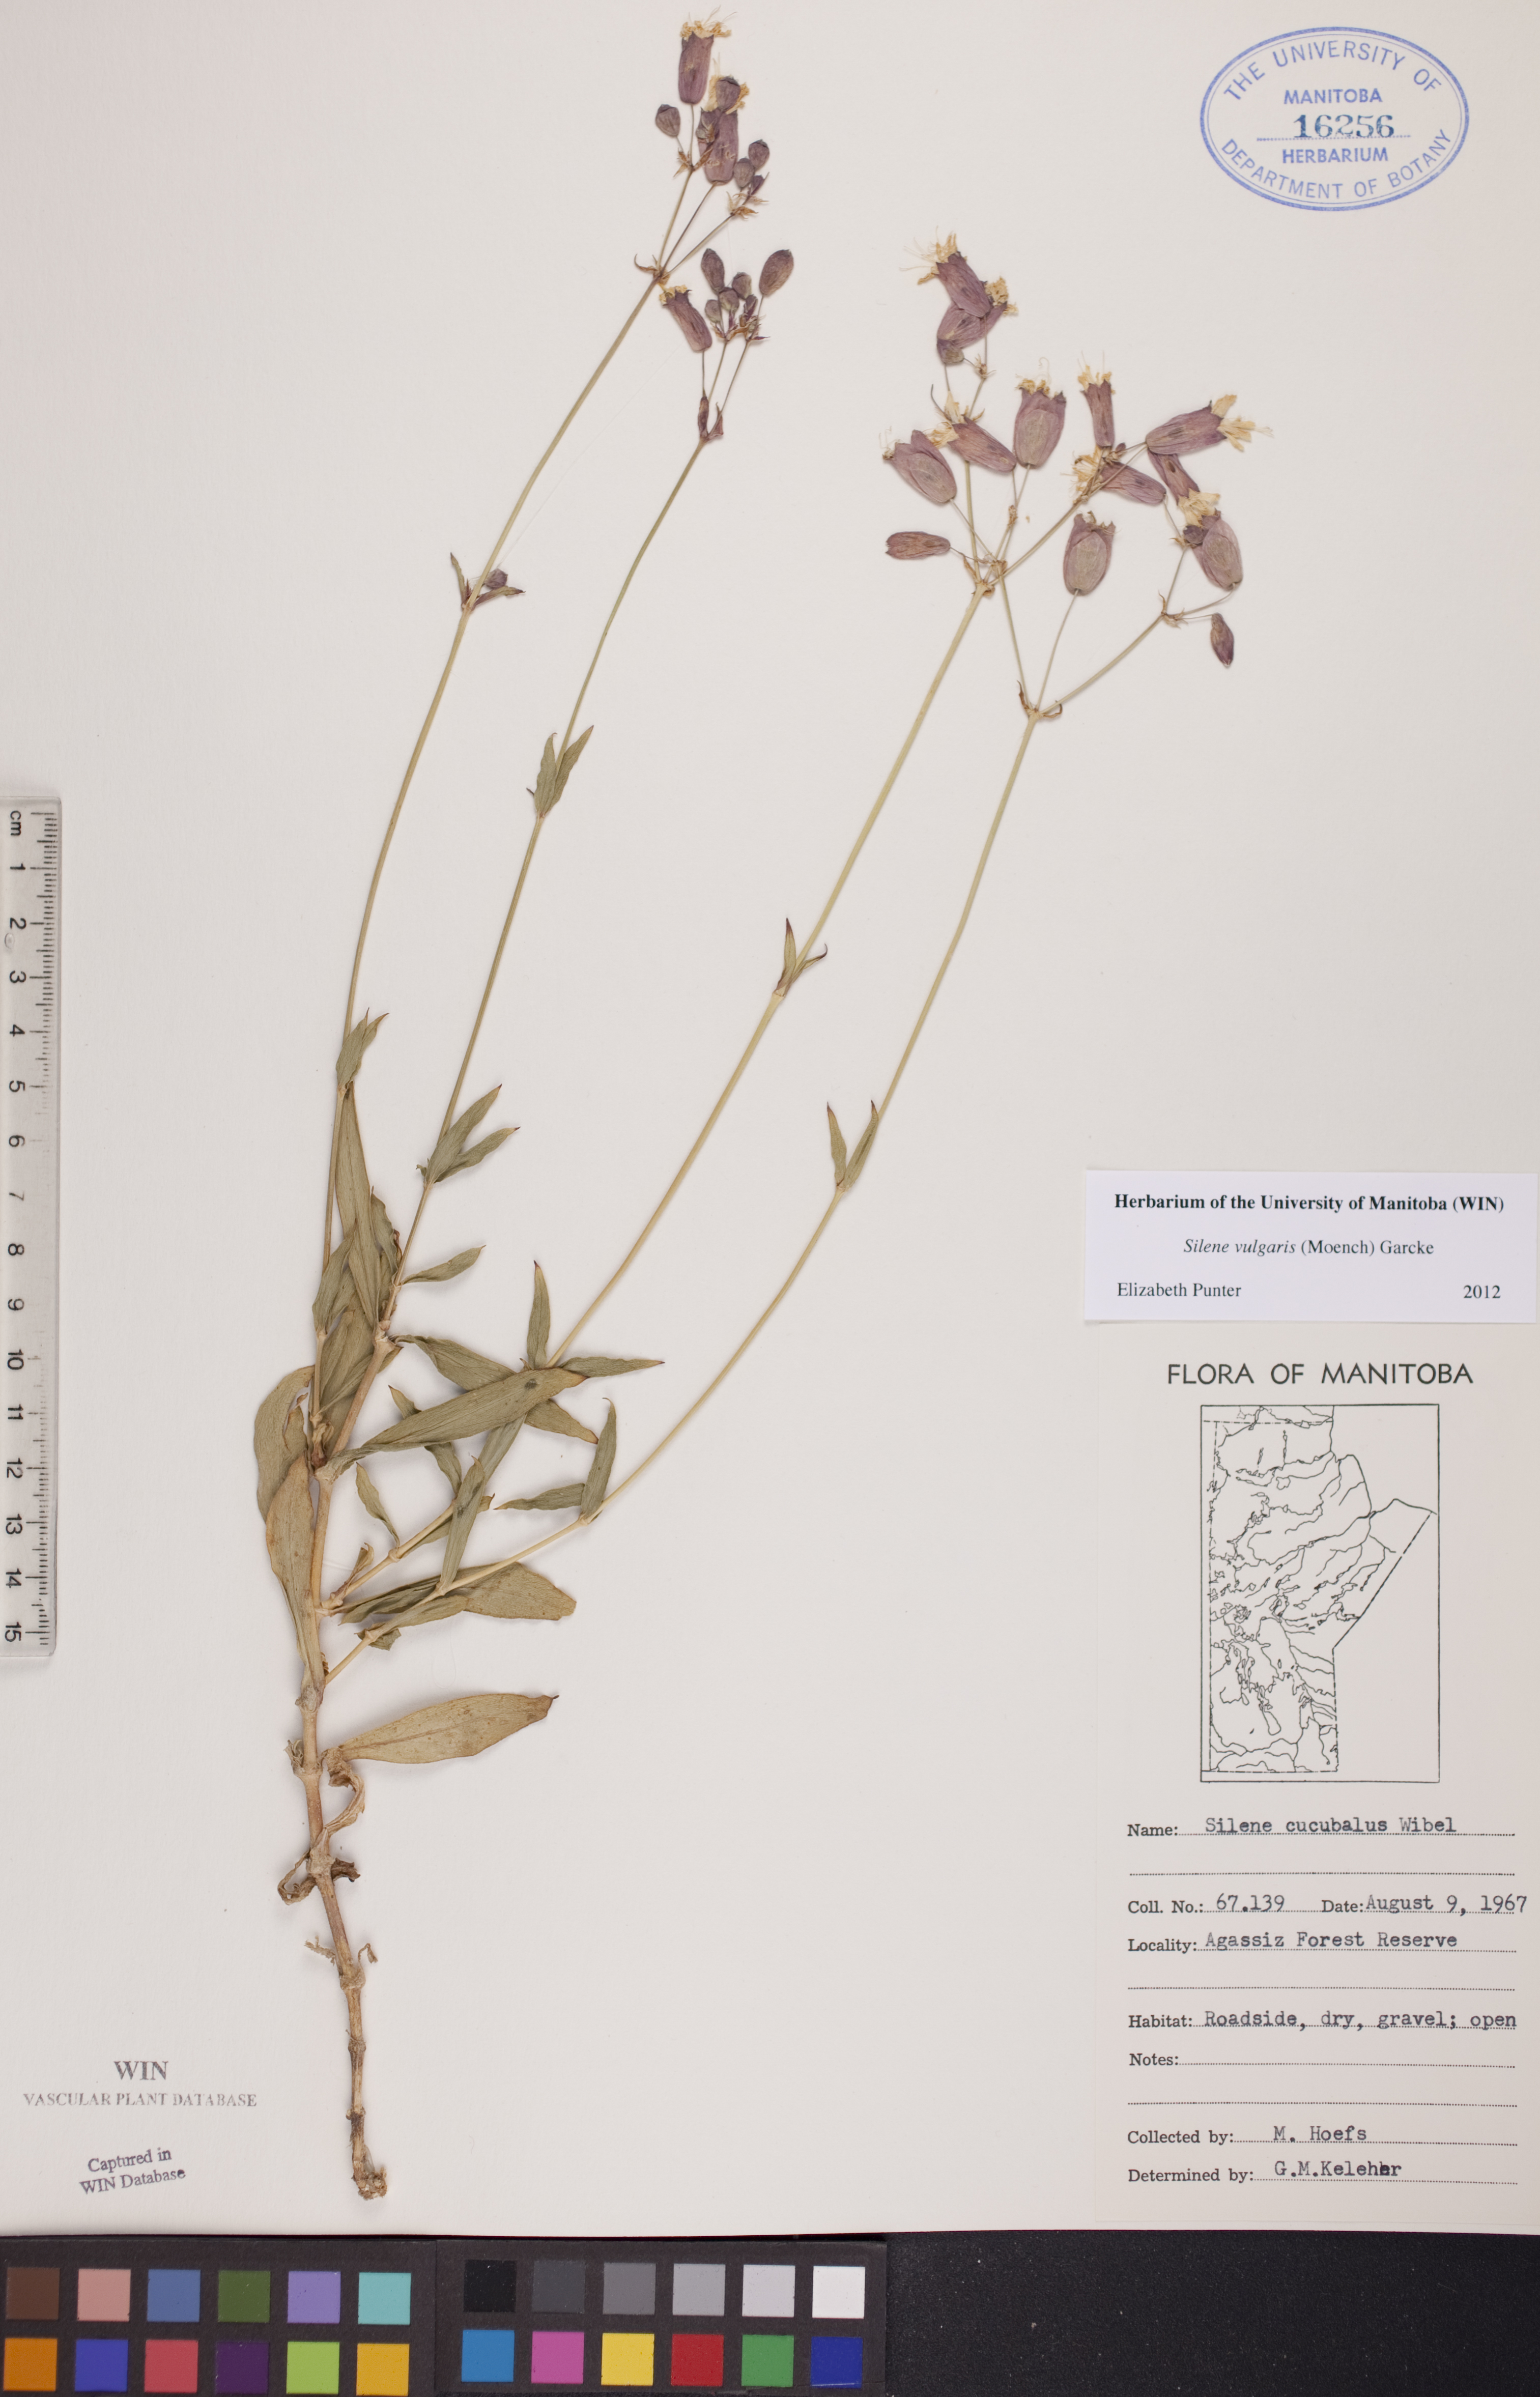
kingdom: Plantae
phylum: Tracheophyta
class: Magnoliopsida
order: Caryophyllales
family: Caryophyllaceae
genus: Silene
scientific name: Silene vulgaris
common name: Bladder campion
